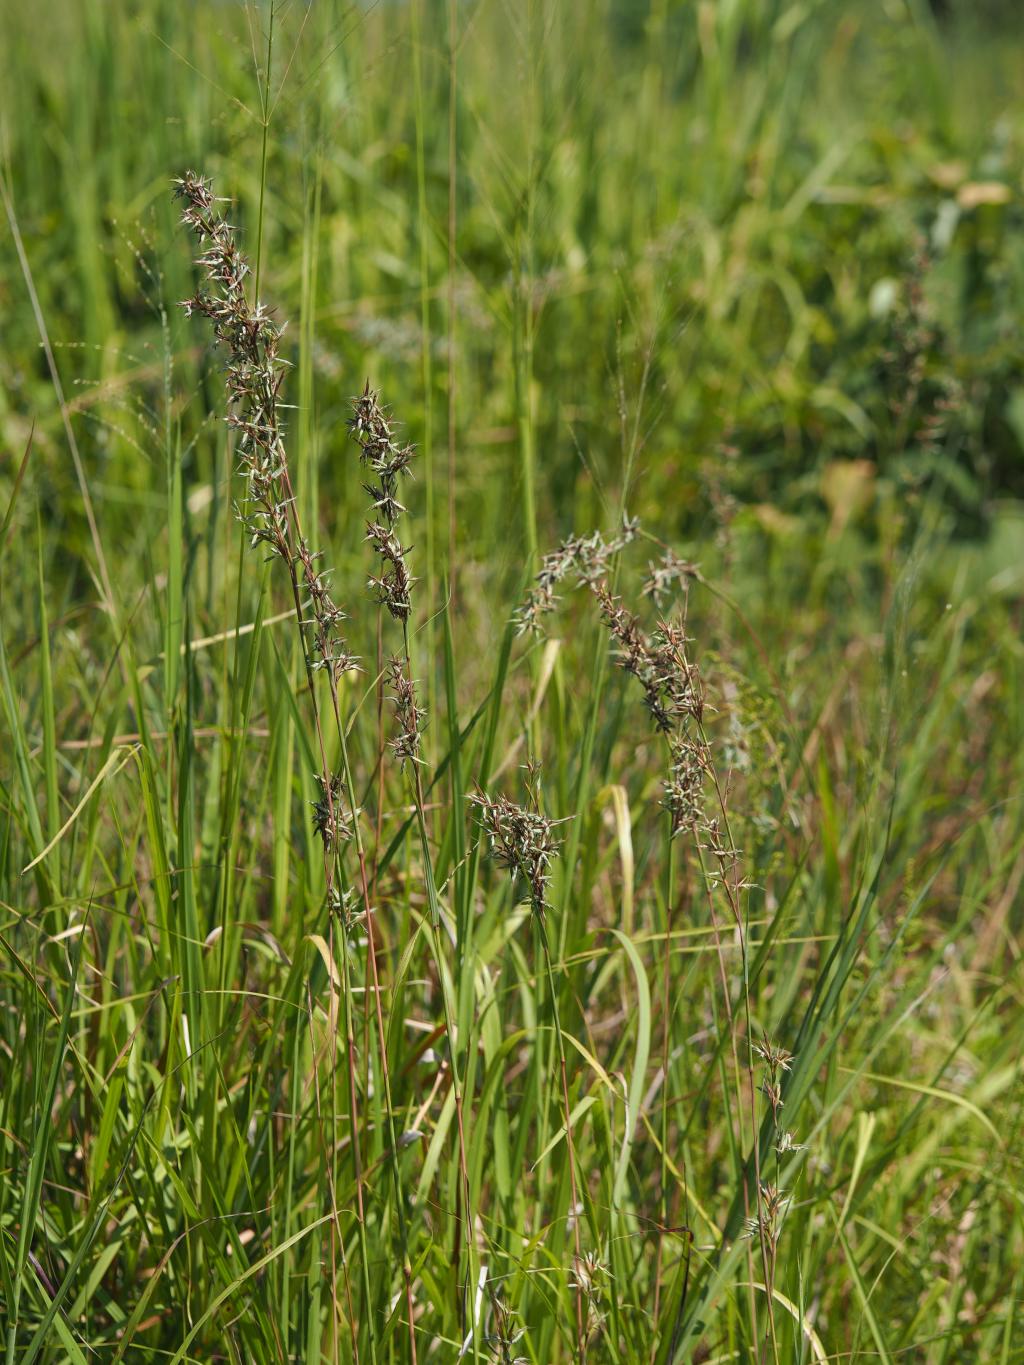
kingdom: Plantae
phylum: Tracheophyta
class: Liliopsida
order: Poales
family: Poaceae
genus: Cymbopogon
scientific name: Cymbopogon tortilis
